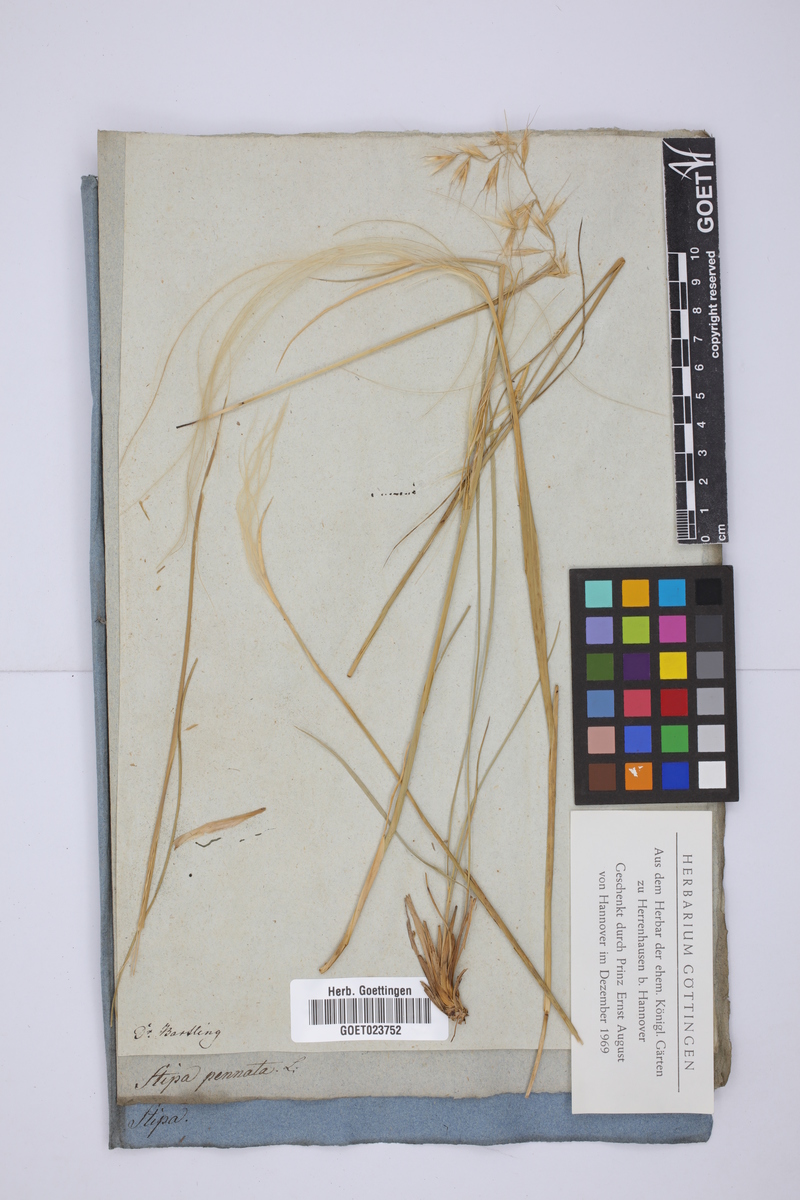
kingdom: Plantae
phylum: Tracheophyta
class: Liliopsida
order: Poales
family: Poaceae
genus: Stipa
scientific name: Stipa pennata
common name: European feather grass
